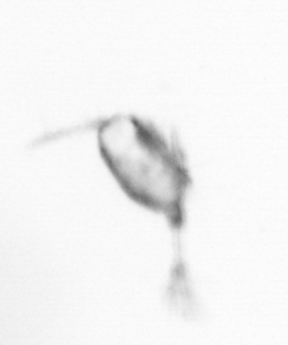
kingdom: Animalia
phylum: Arthropoda
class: Copepoda
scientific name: Copepoda
